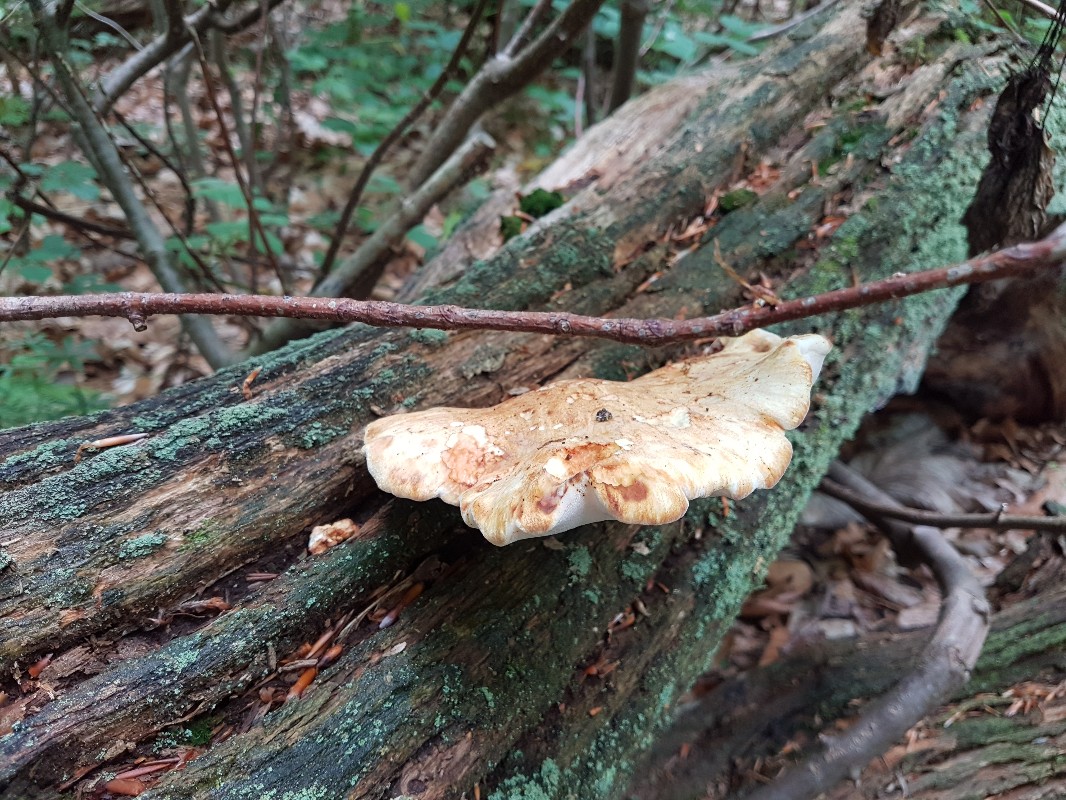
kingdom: Fungi
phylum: Basidiomycota
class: Agaricomycetes
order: Polyporales
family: Fomitopsidaceae
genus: Buglossoporus
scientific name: Buglossoporus quercinus
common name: egetunge
